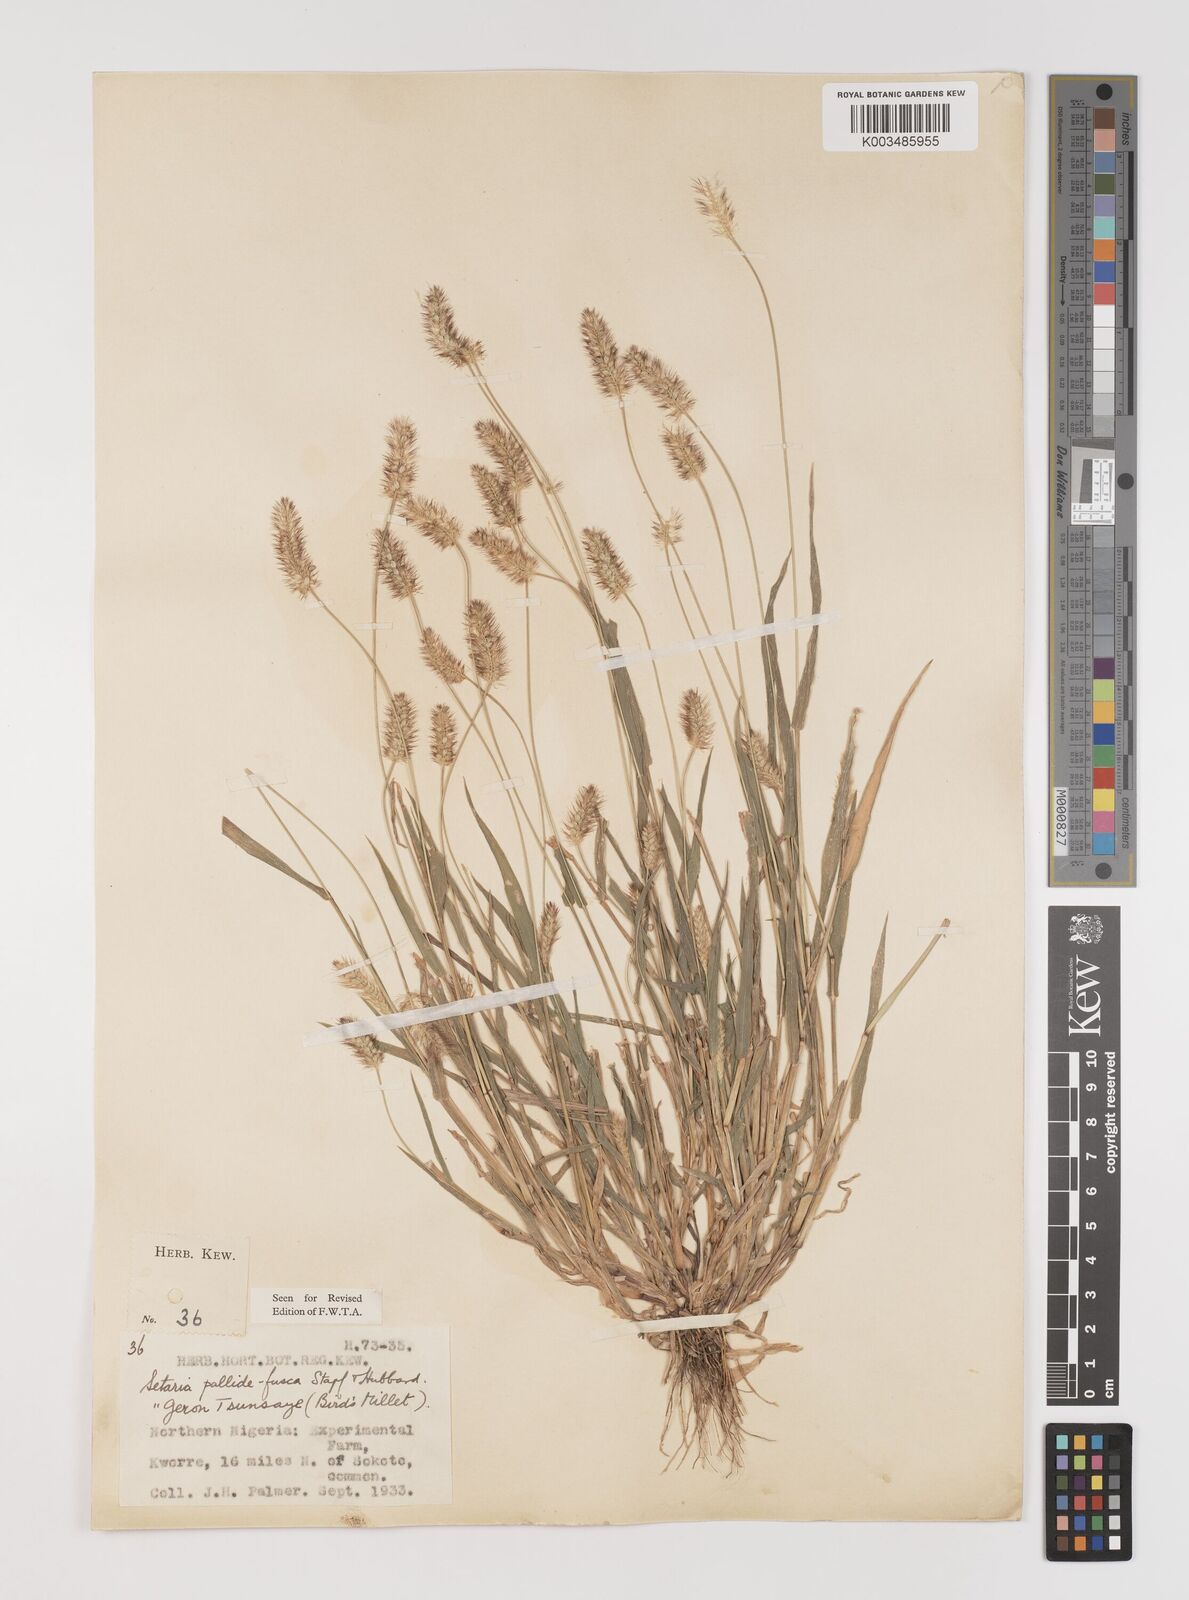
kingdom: Plantae
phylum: Tracheophyta
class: Liliopsida
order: Poales
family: Poaceae
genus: Setaria
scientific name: Setaria pumila
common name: Yellow bristle-grass
